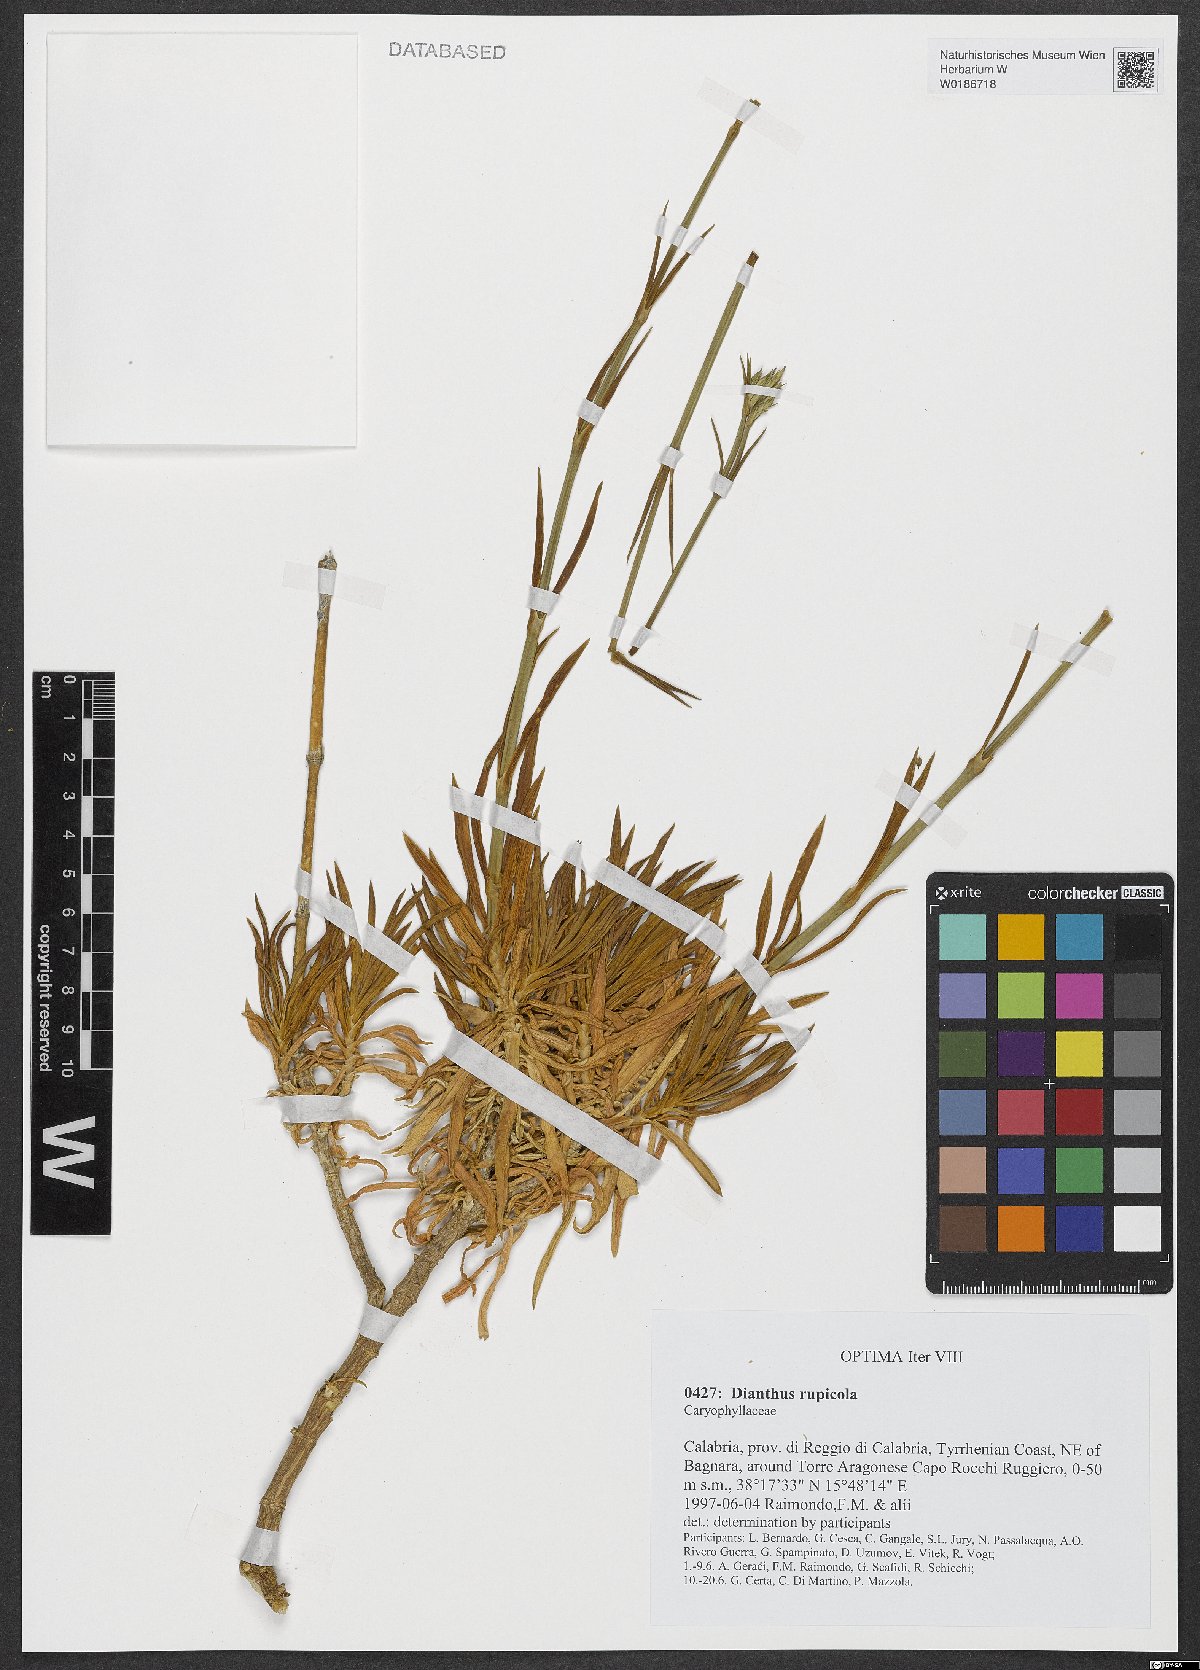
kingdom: Plantae
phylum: Tracheophyta
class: Magnoliopsida
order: Caryophyllales
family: Caryophyllaceae
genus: Dianthus
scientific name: Dianthus rupicola
